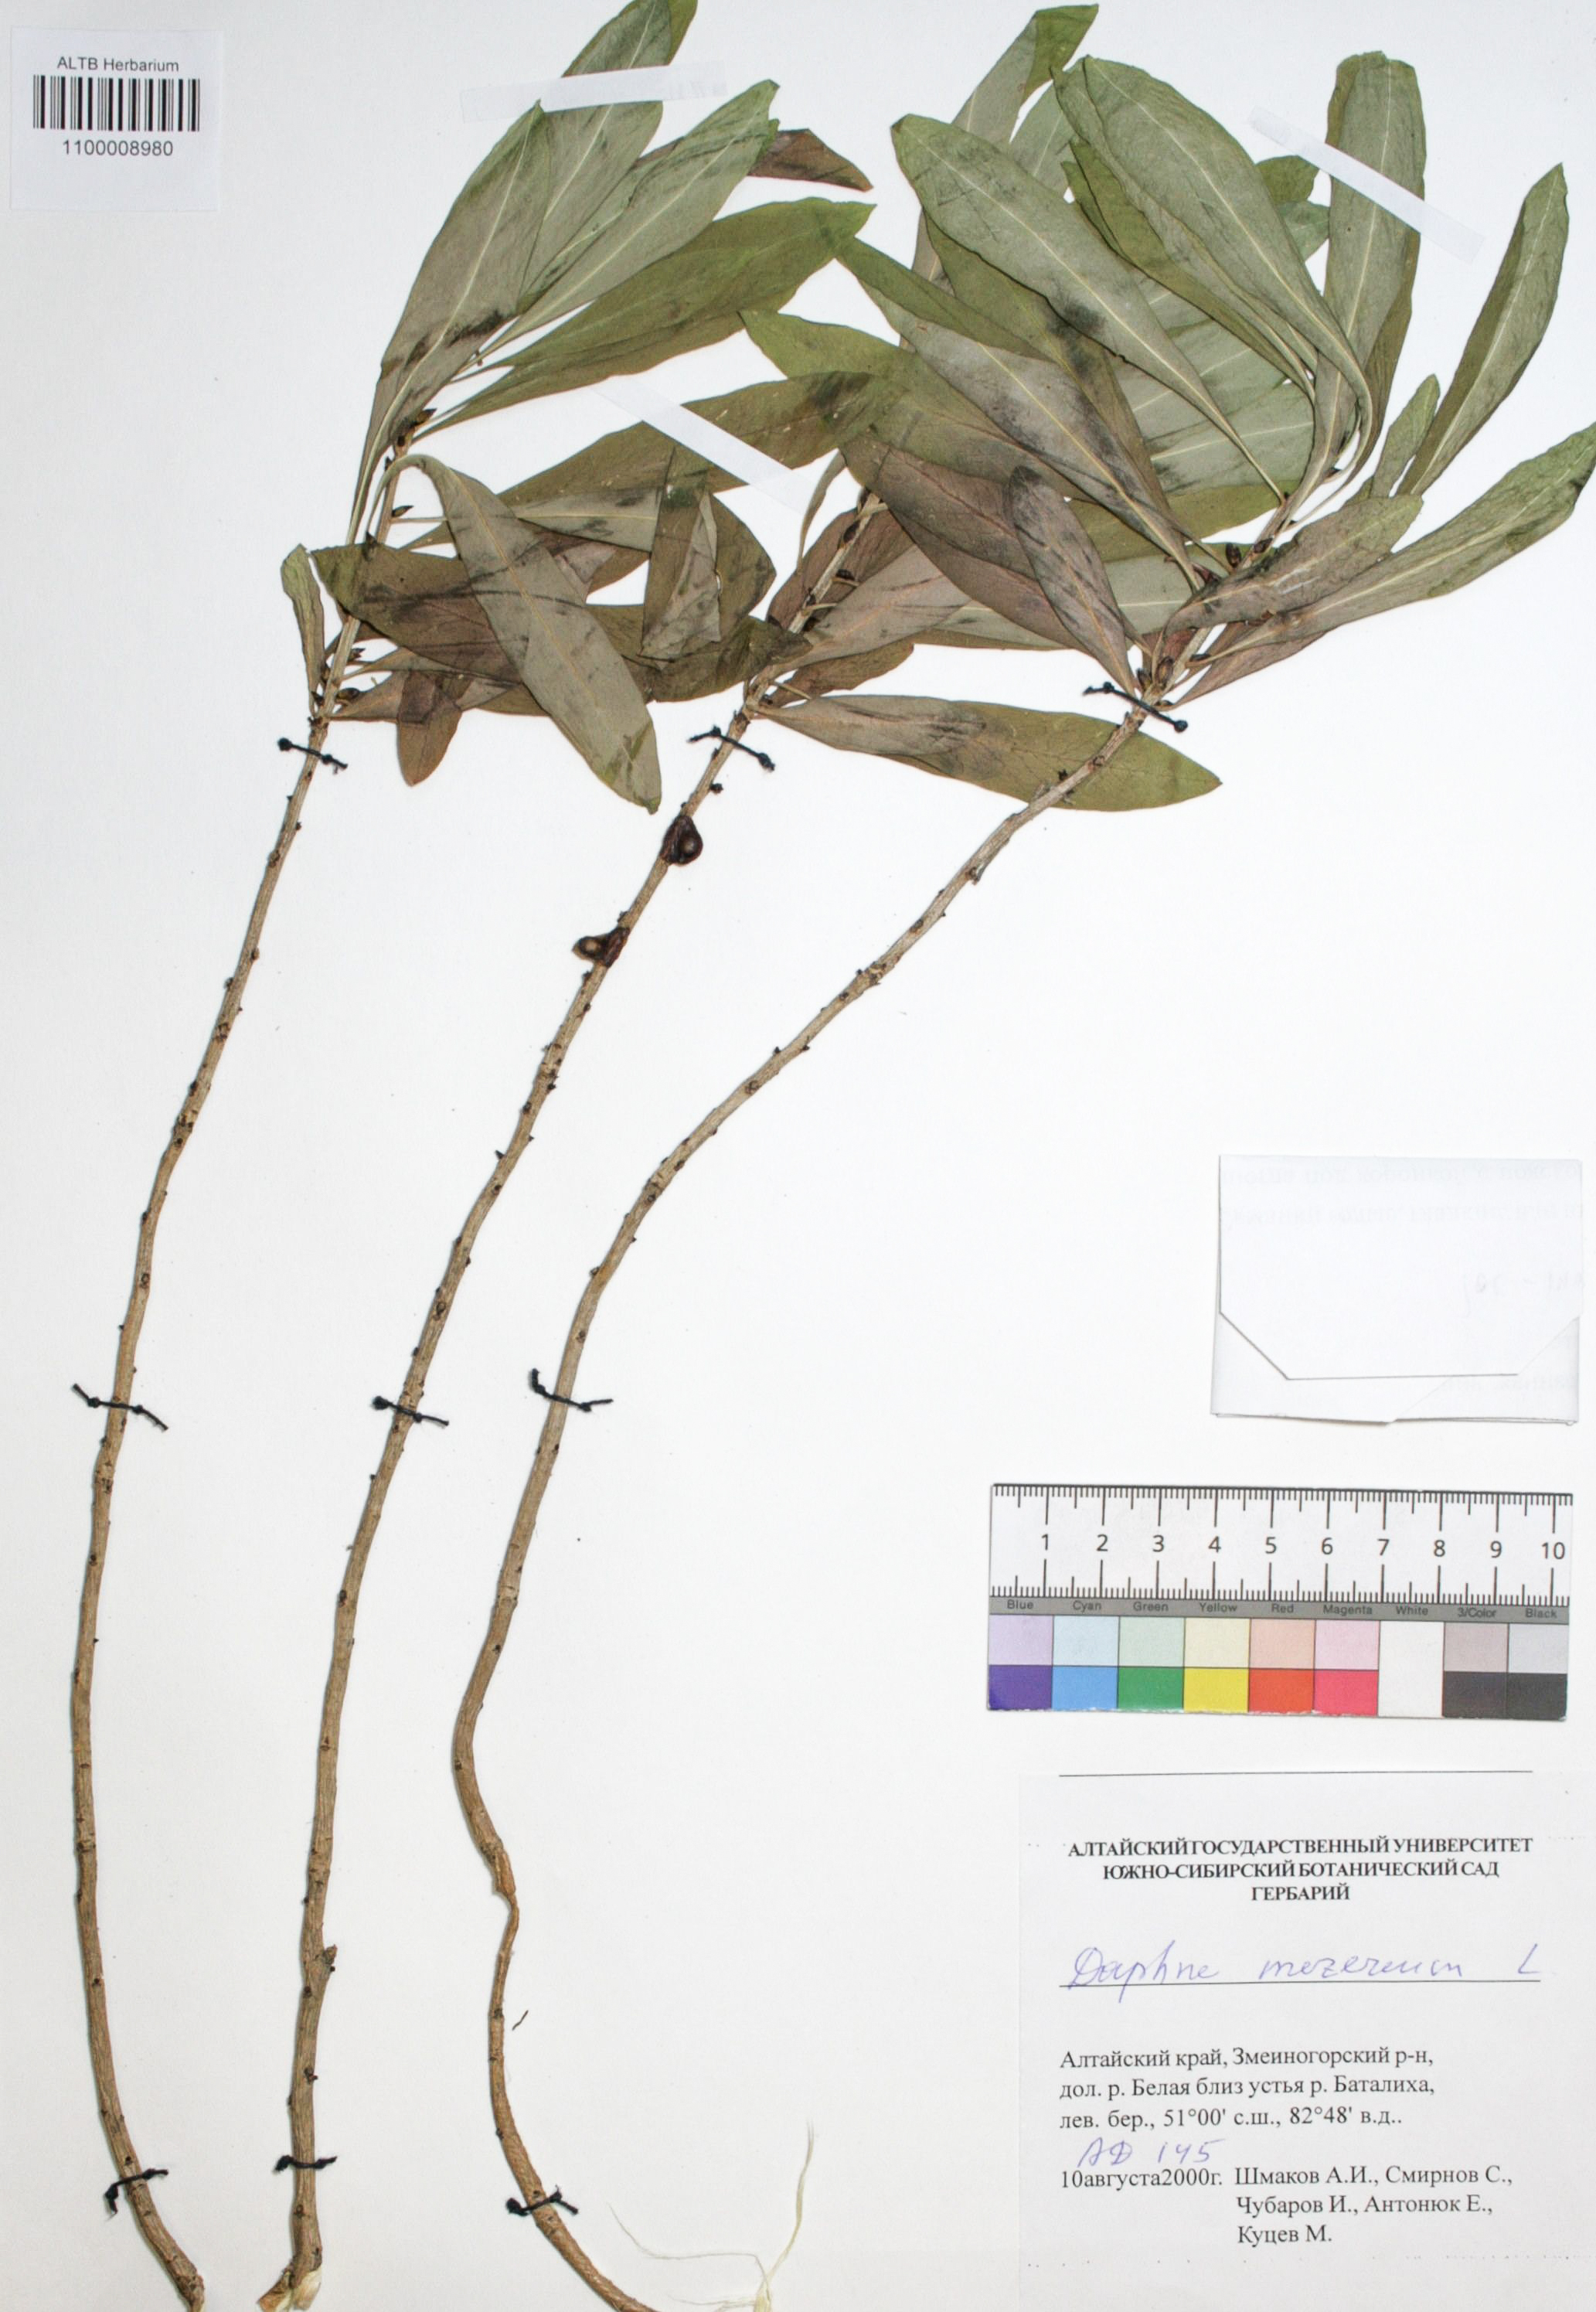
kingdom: Plantae
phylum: Tracheophyta
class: Magnoliopsida
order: Malvales
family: Thymelaeaceae
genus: Daphne
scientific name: Daphne mezereum
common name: Mezereon
